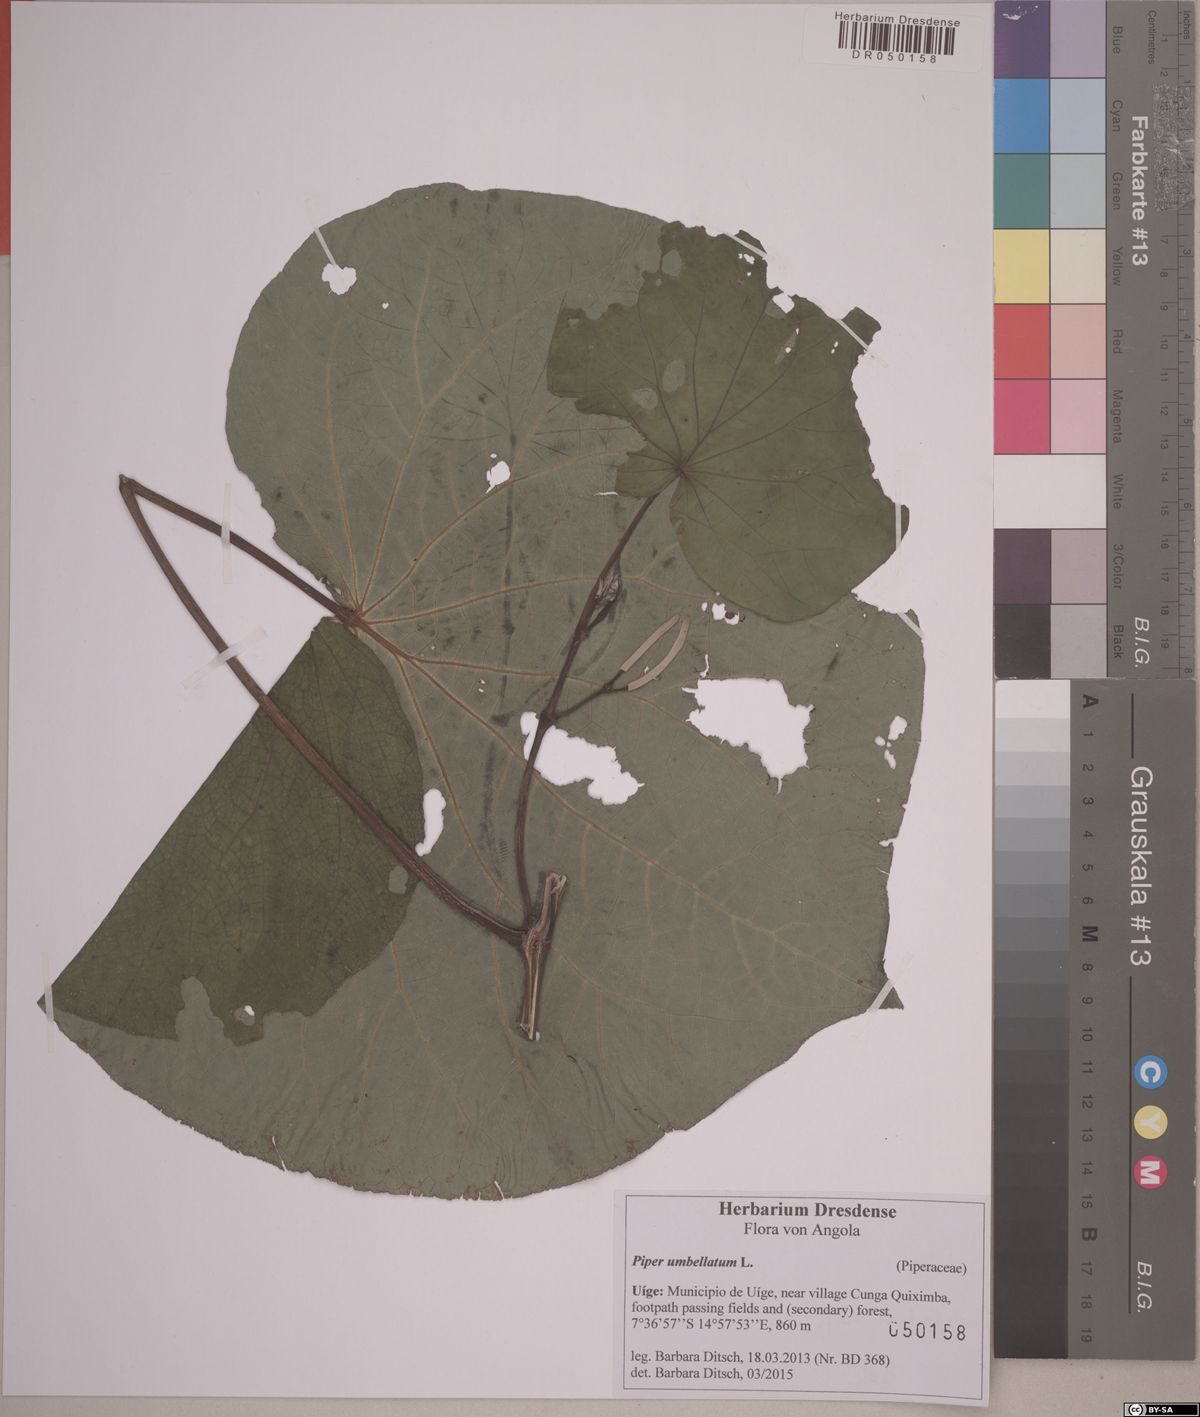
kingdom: Plantae
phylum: Tracheophyta
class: Magnoliopsida
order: Piperales
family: Piperaceae
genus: Piper
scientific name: Piper umbellatum
